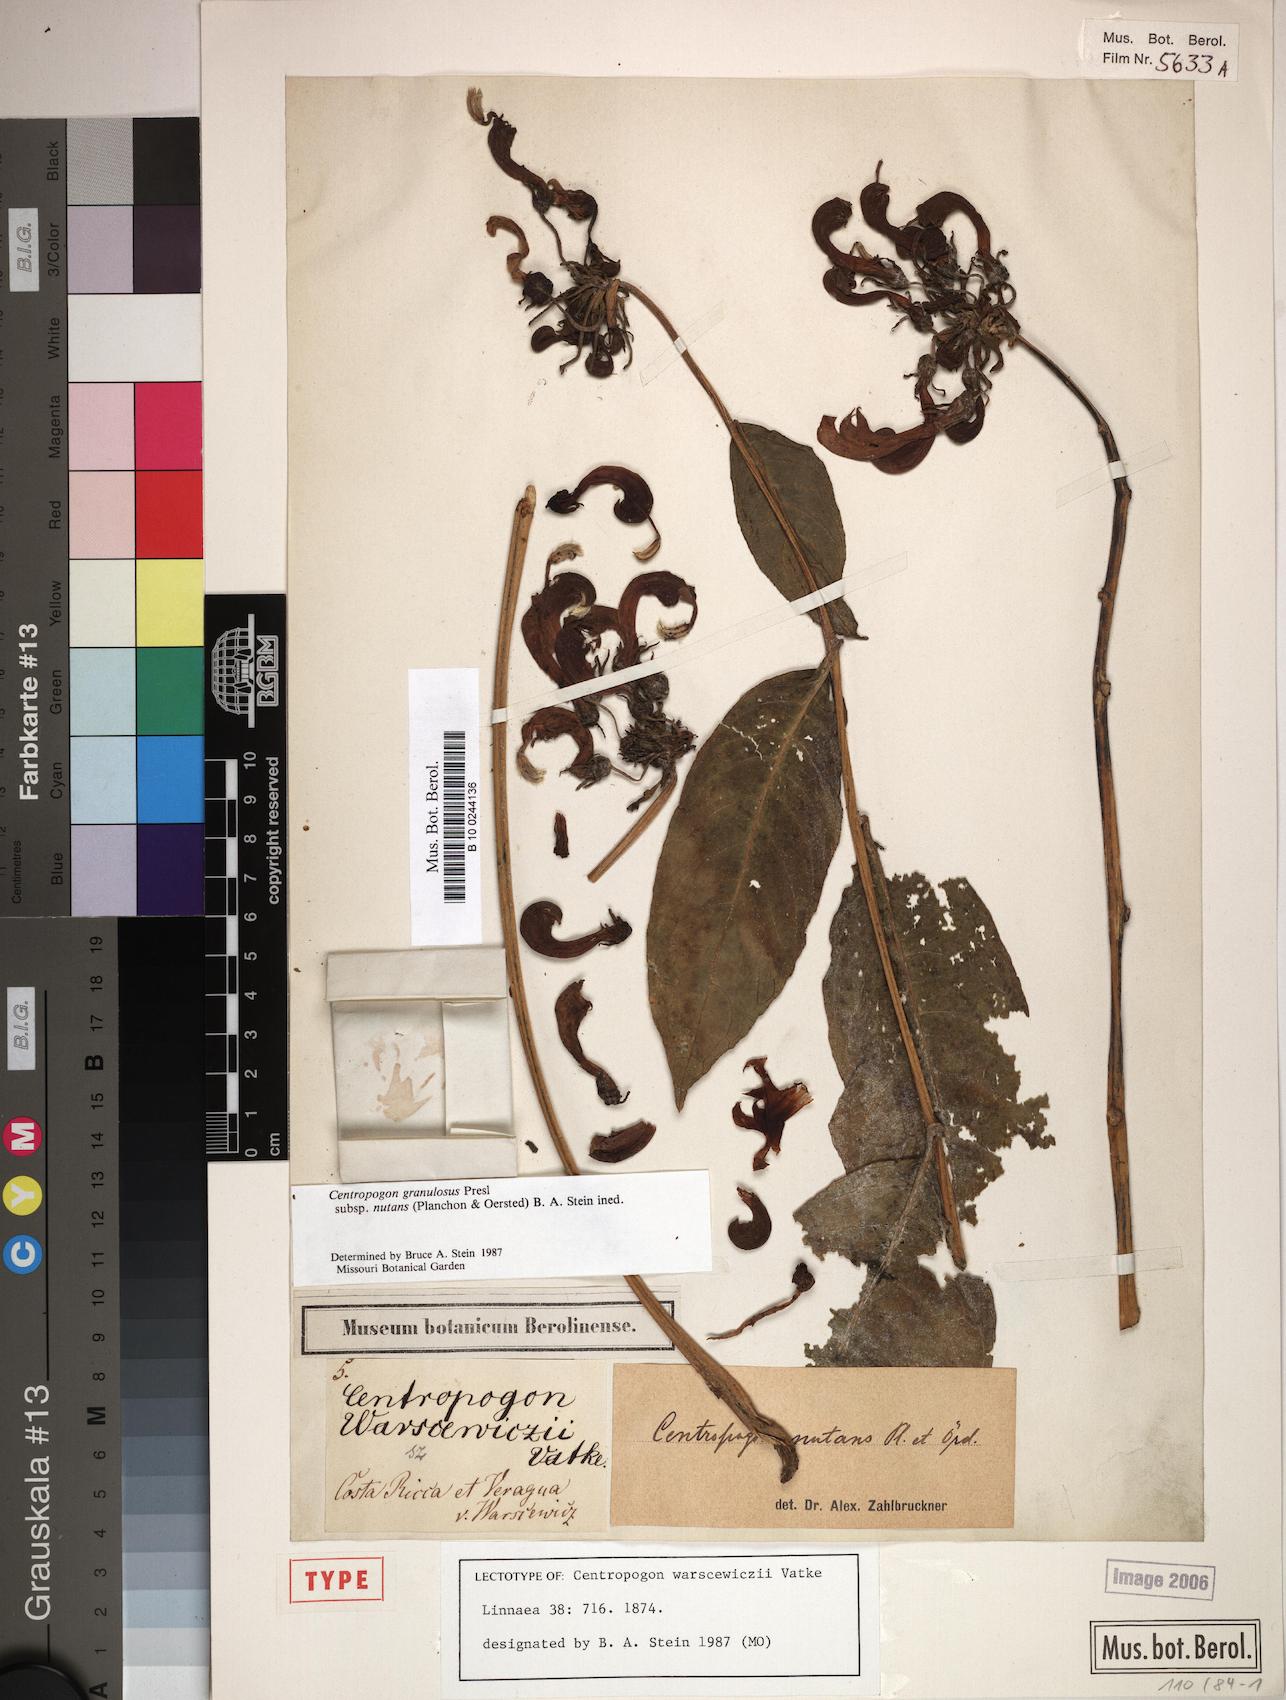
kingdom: Plantae
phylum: Tracheophyta
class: Magnoliopsida
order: Asterales
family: Campanulaceae
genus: Centropogon
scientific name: Centropogon granulosus
